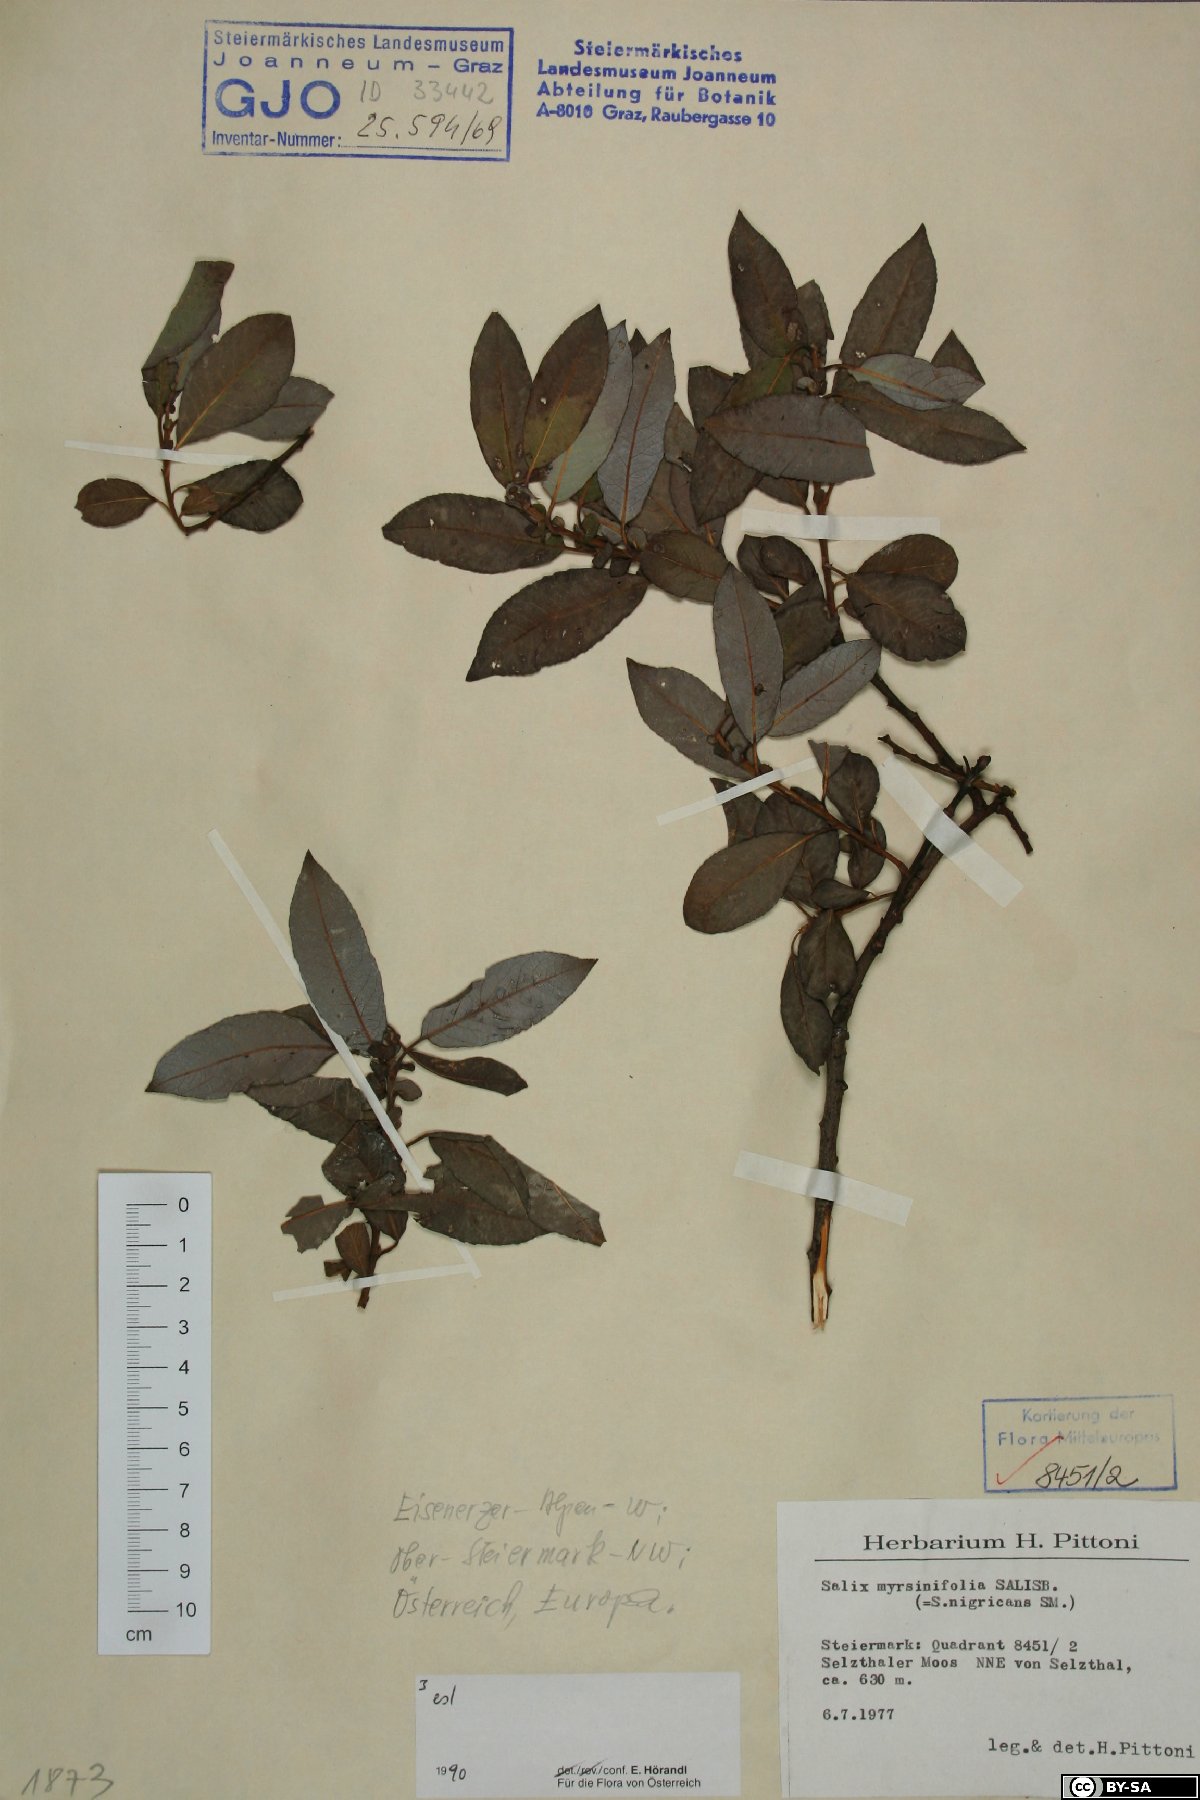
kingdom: Plantae
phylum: Tracheophyta
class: Magnoliopsida
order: Malpighiales
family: Salicaceae
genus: Salix
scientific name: Salix myrsinifolia
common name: Dark-leaved willow
